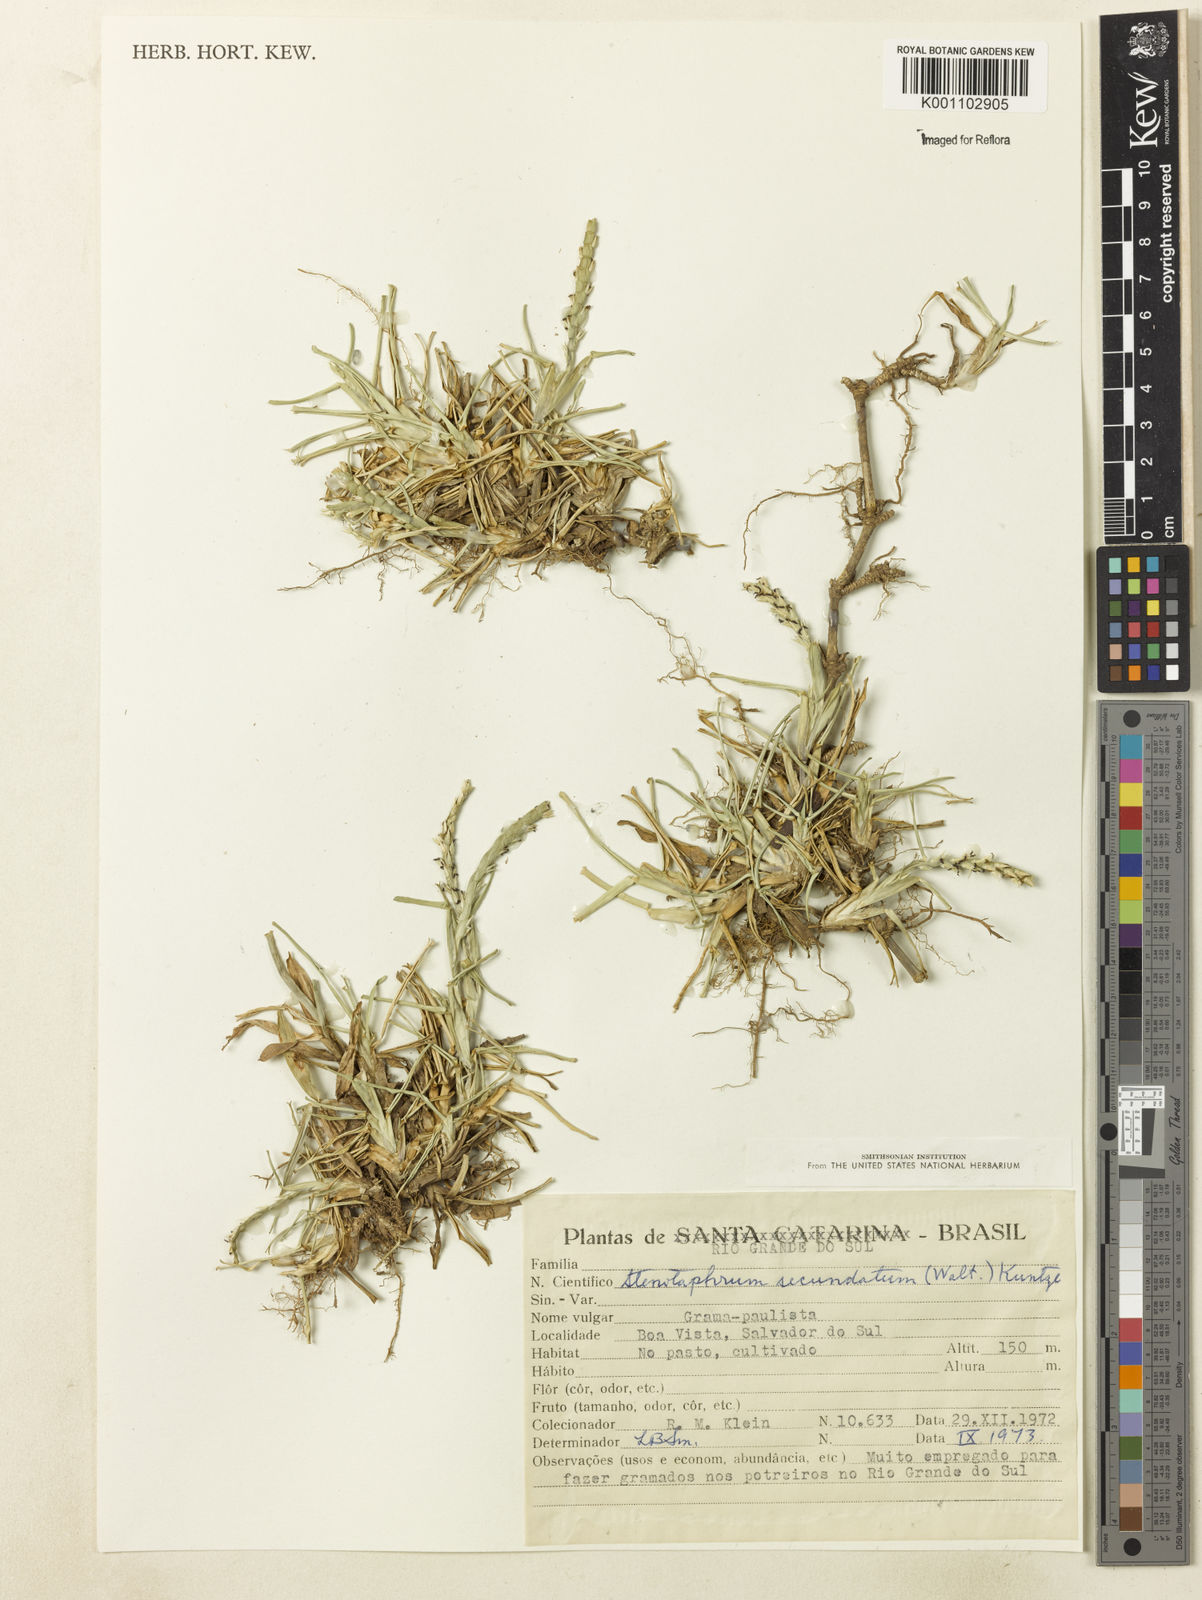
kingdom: Plantae
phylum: Tracheophyta
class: Liliopsida
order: Poales
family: Poaceae
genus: Stenotaphrum
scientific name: Stenotaphrum secundatum
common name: St. augustine grass
